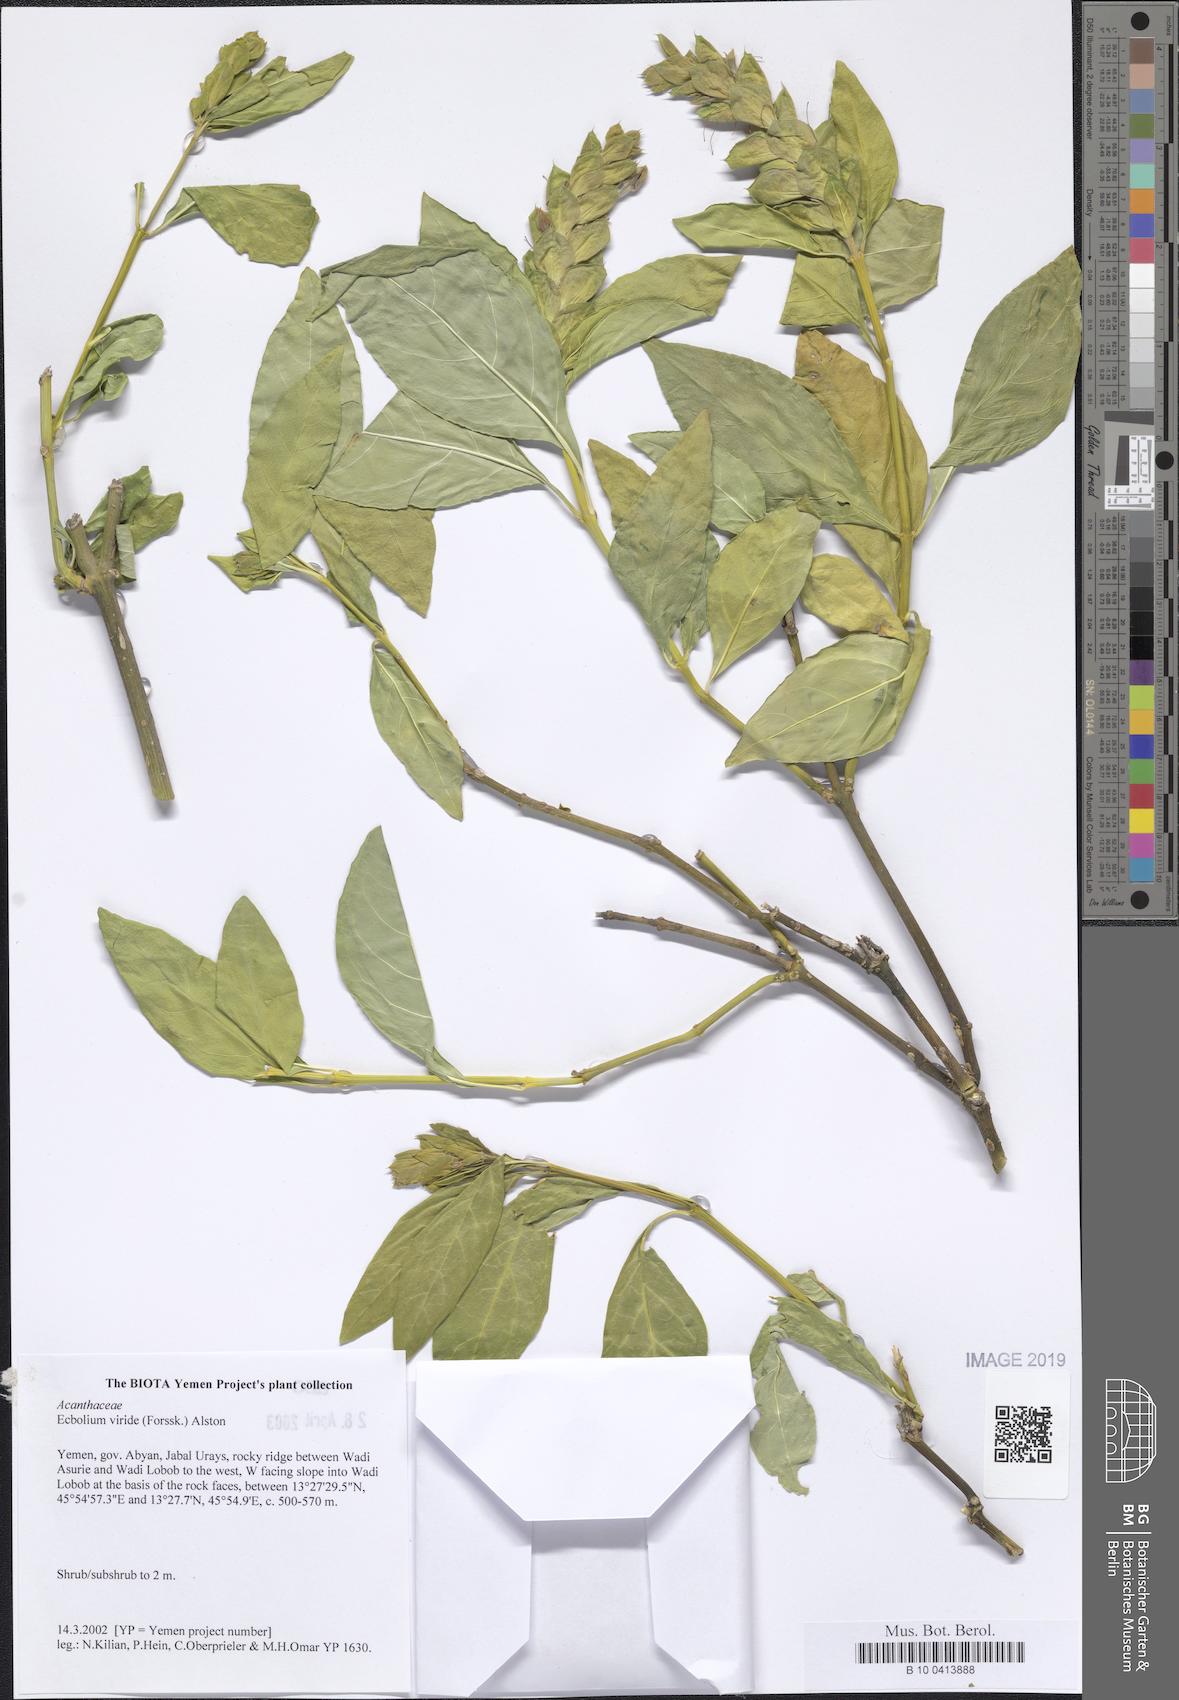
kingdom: Plantae
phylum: Tracheophyta
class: Magnoliopsida
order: Lamiales
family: Acanthaceae
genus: Ecbolium
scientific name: Ecbolium viride
